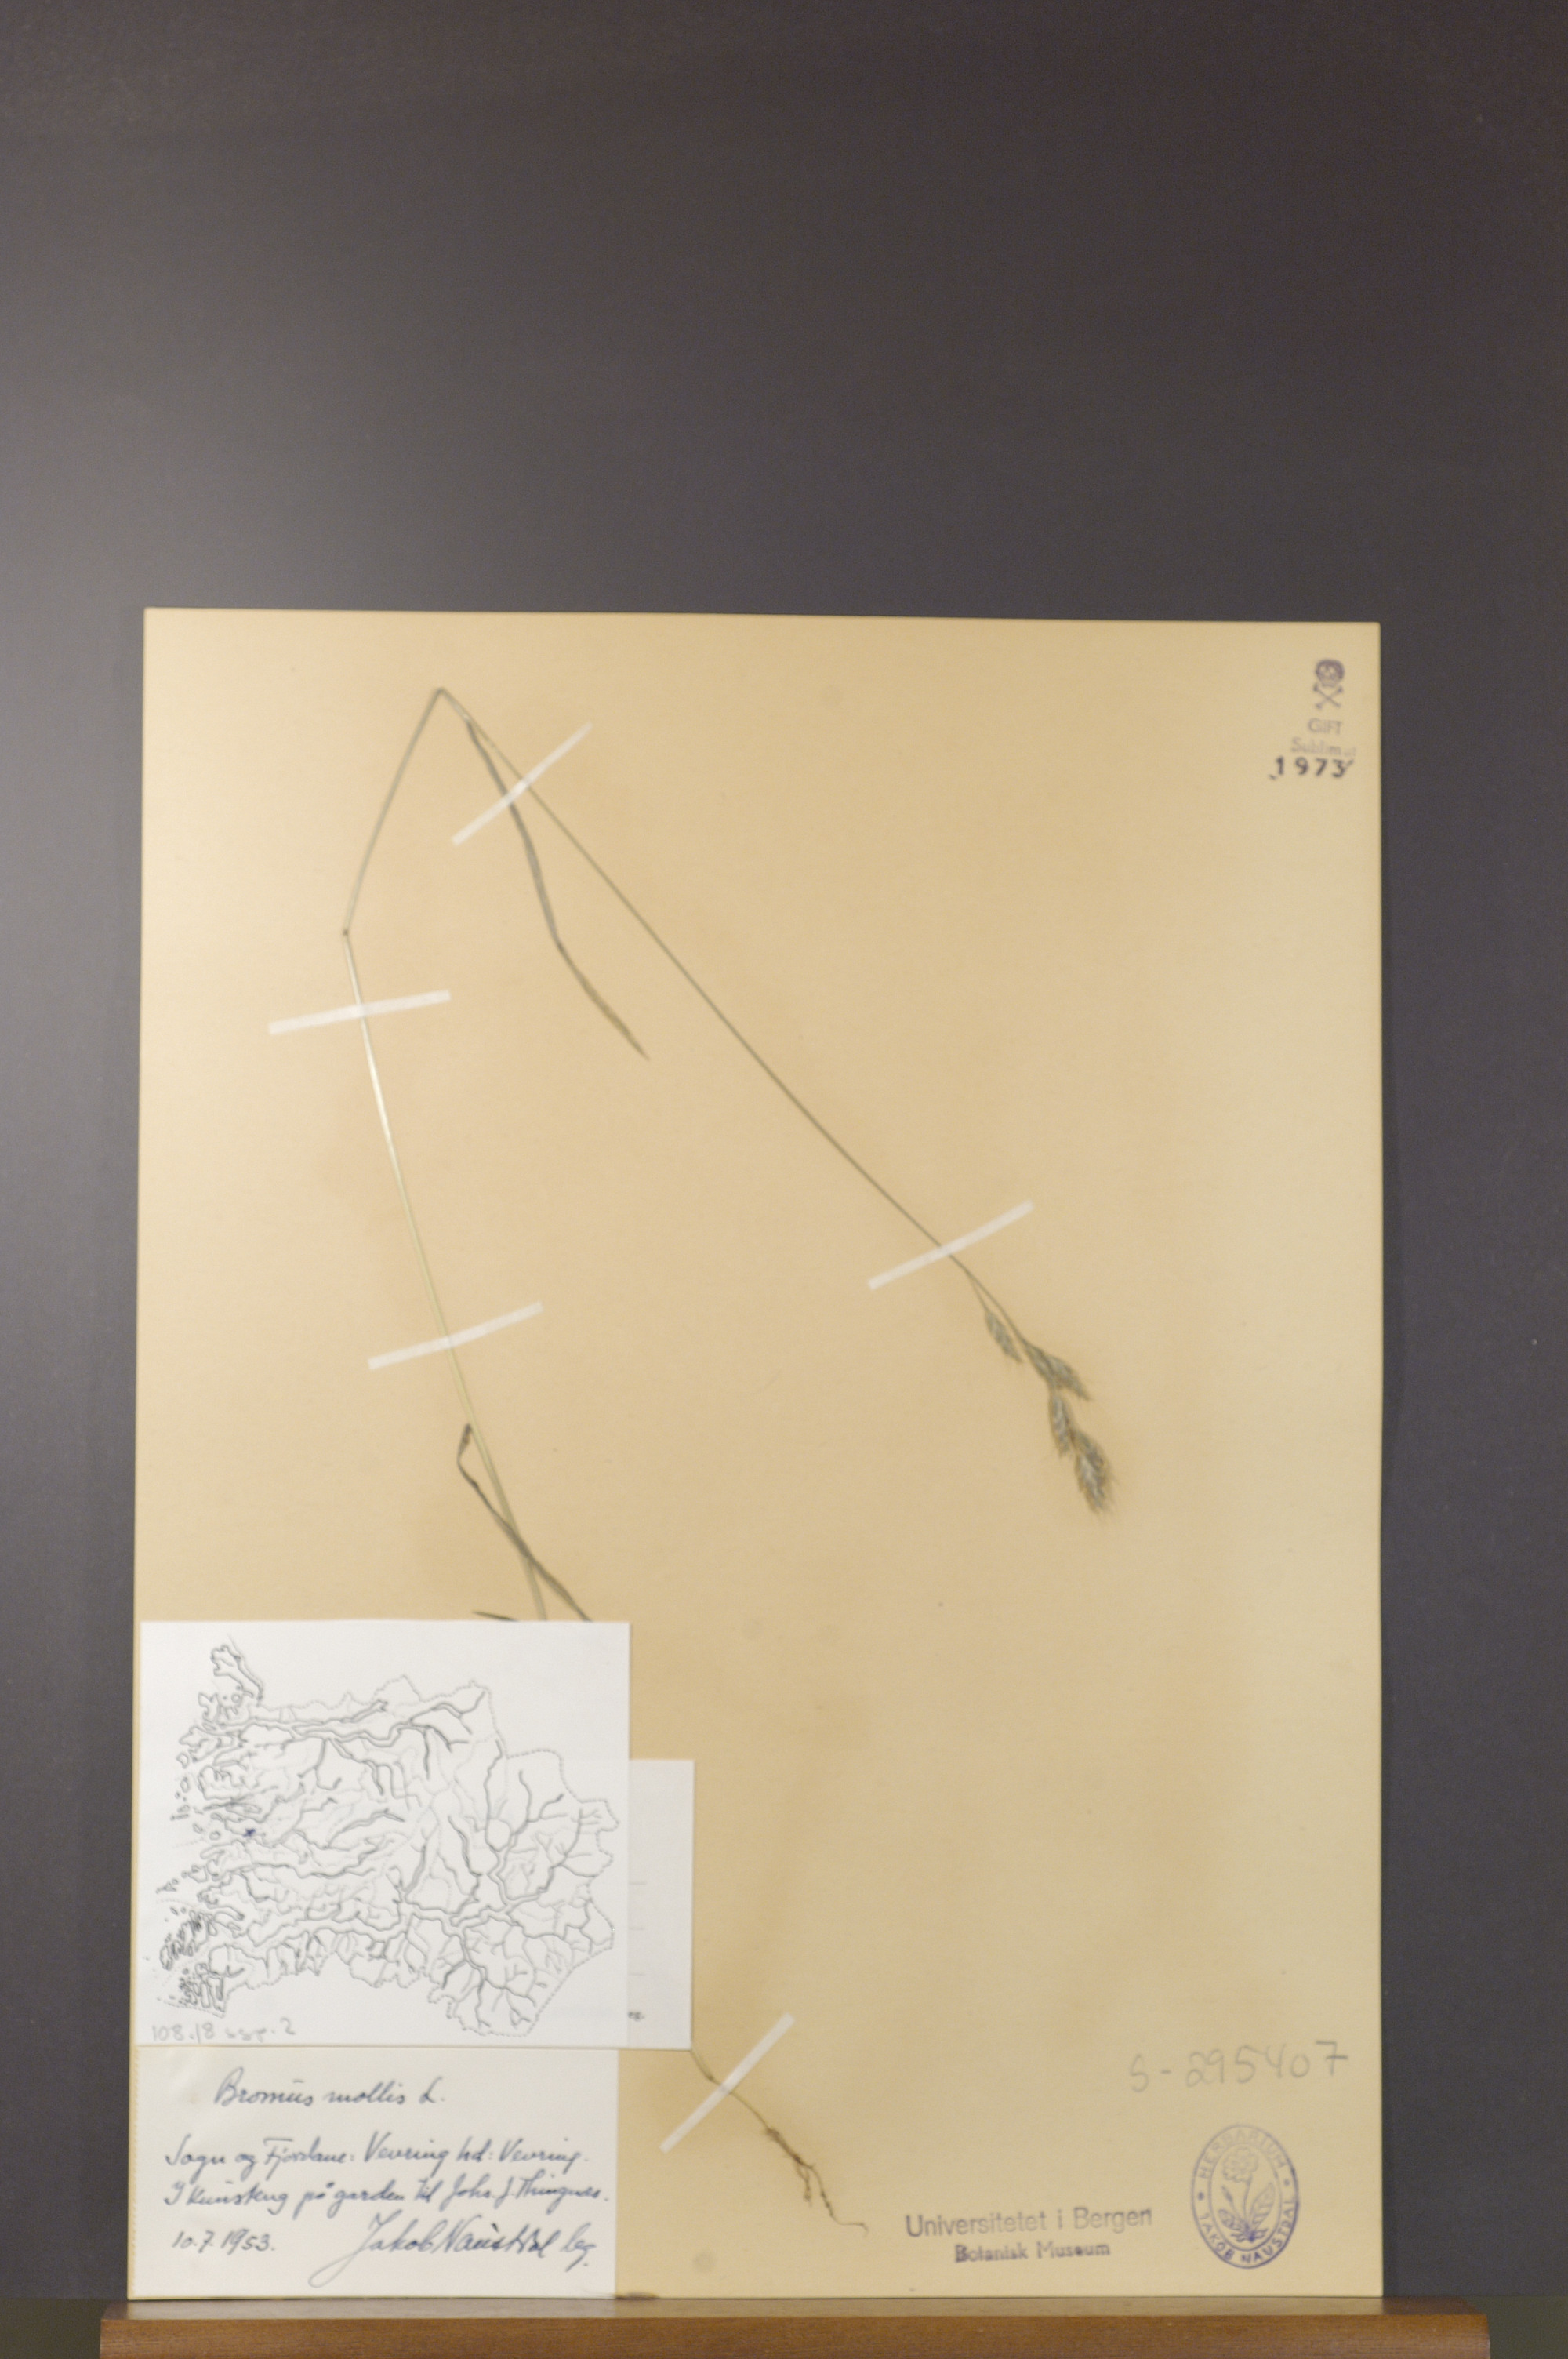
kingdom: Plantae
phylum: Tracheophyta
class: Liliopsida
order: Poales
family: Poaceae
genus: Bromus
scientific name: Bromus hordeaceus
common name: Soft brome
